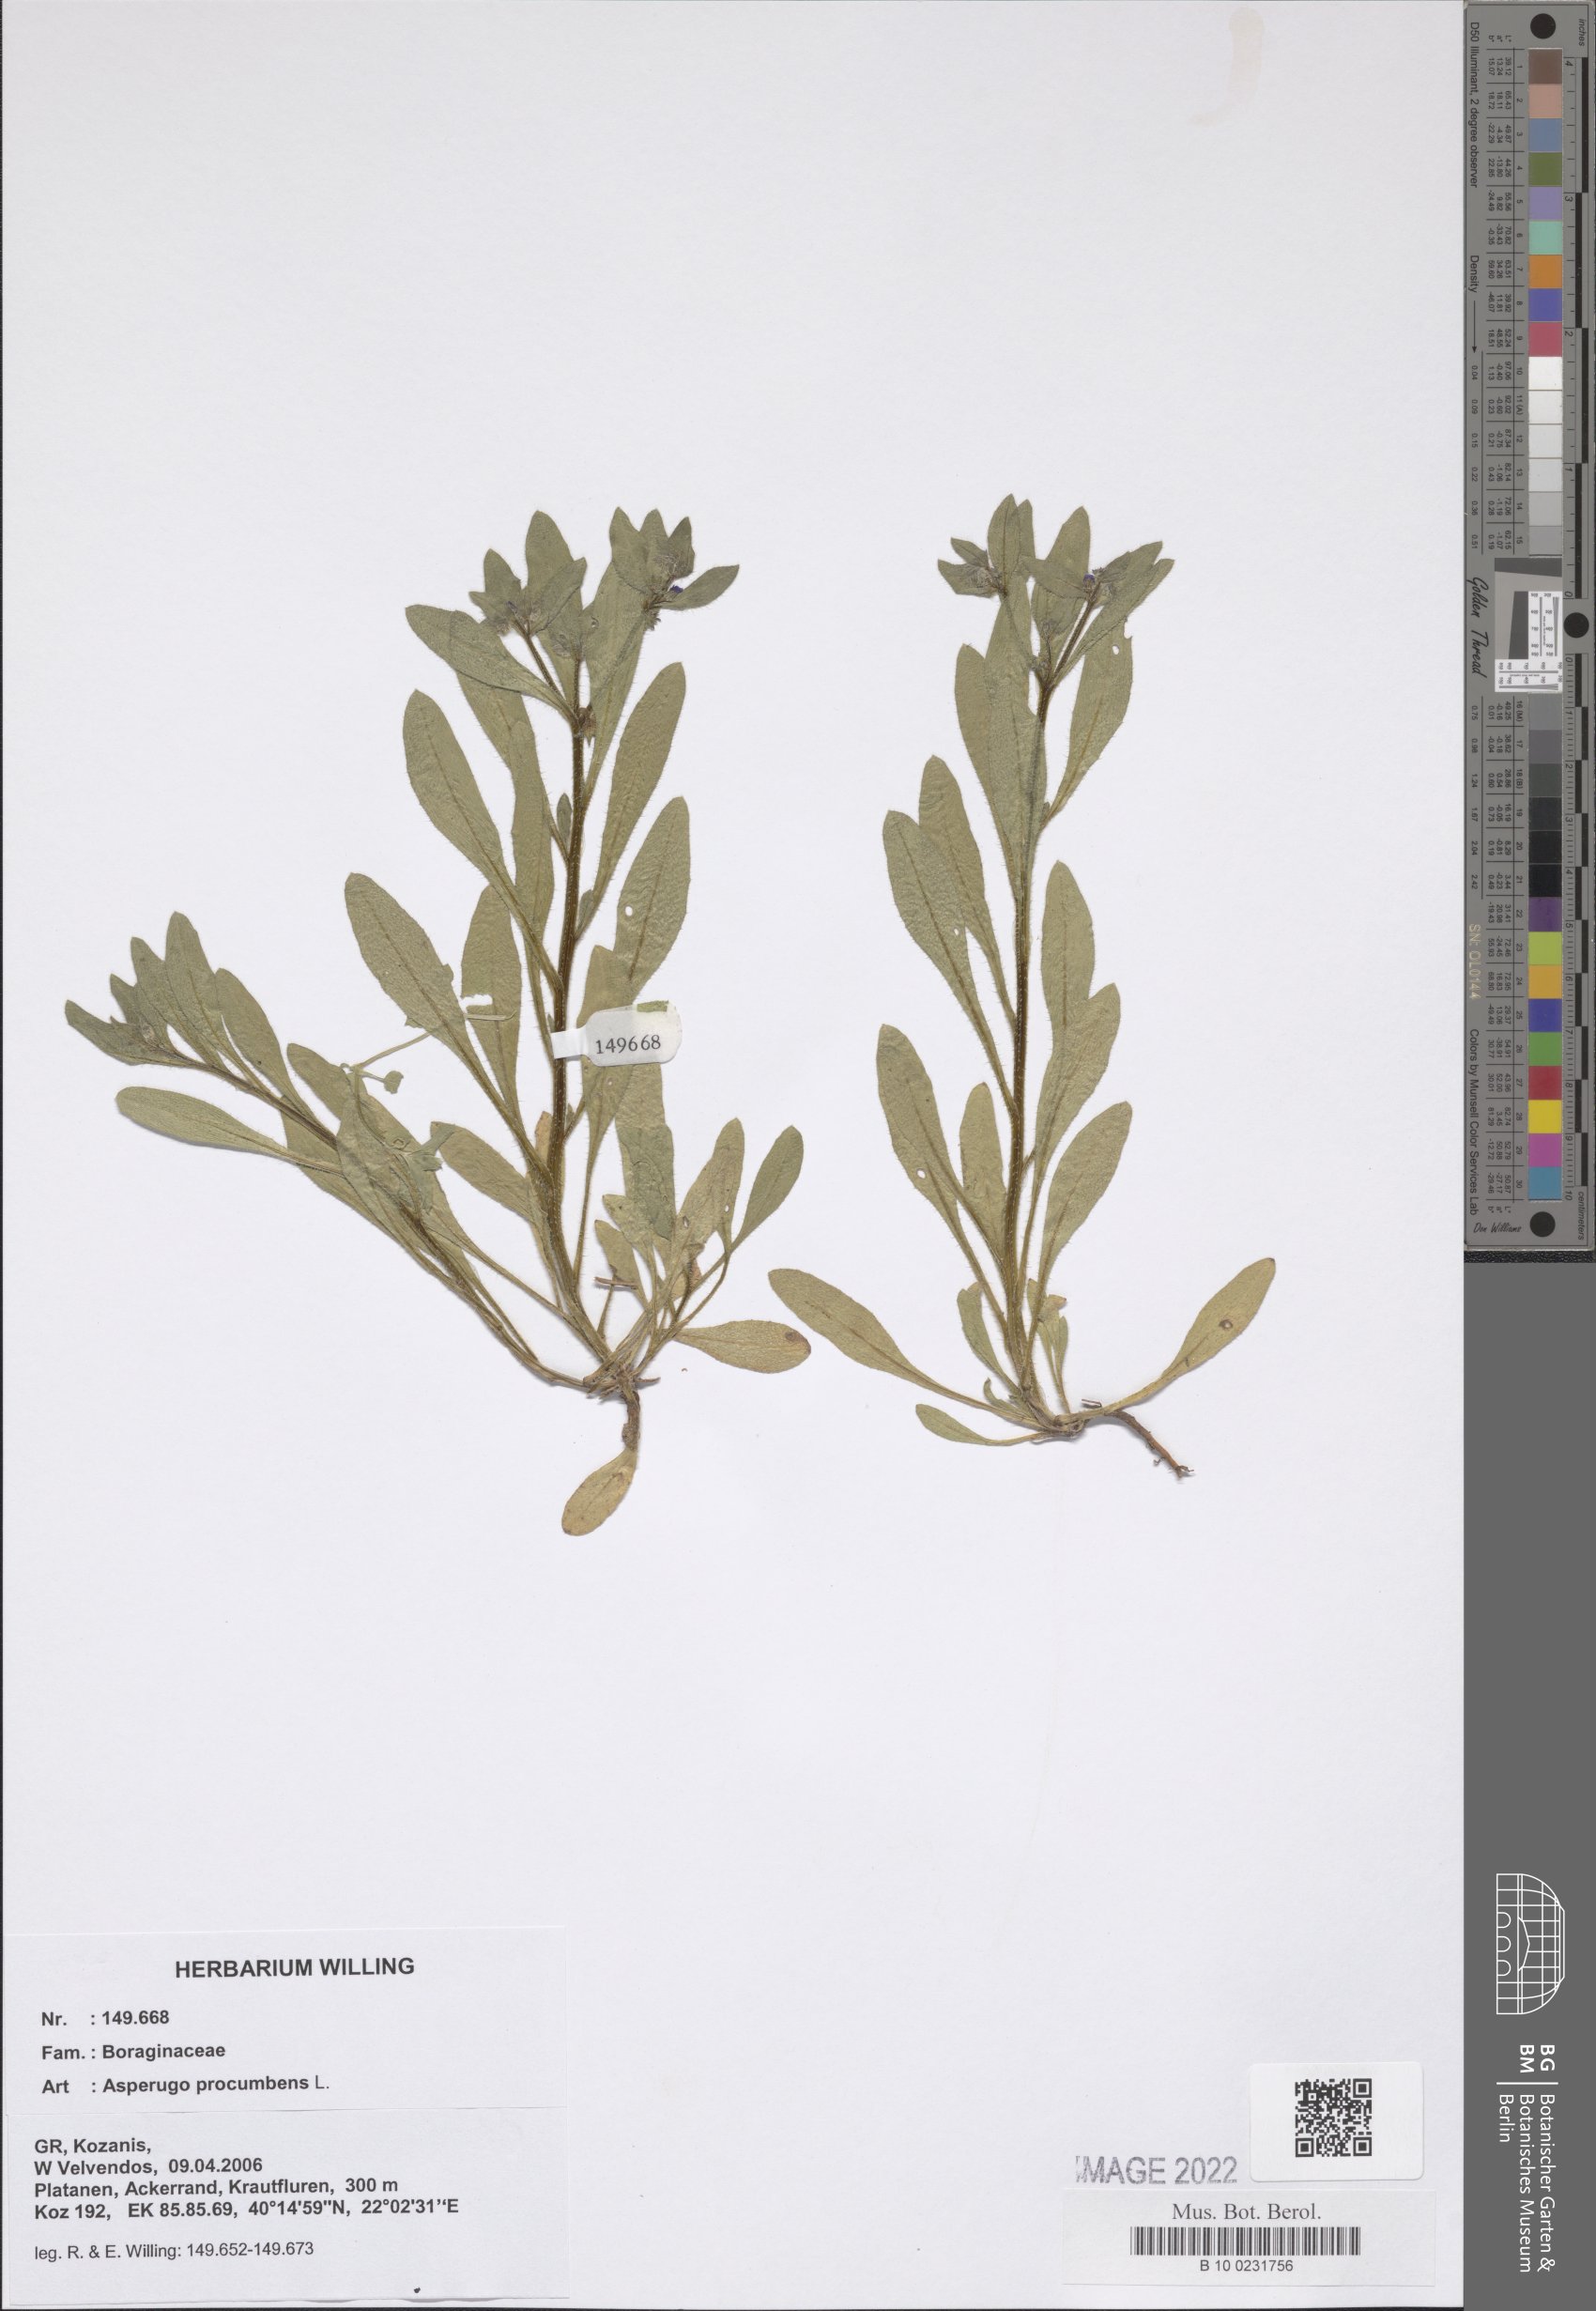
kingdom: Plantae
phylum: Tracheophyta
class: Magnoliopsida
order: Boraginales
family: Boraginaceae
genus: Asperugo
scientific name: Asperugo procumbens
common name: Madwort
